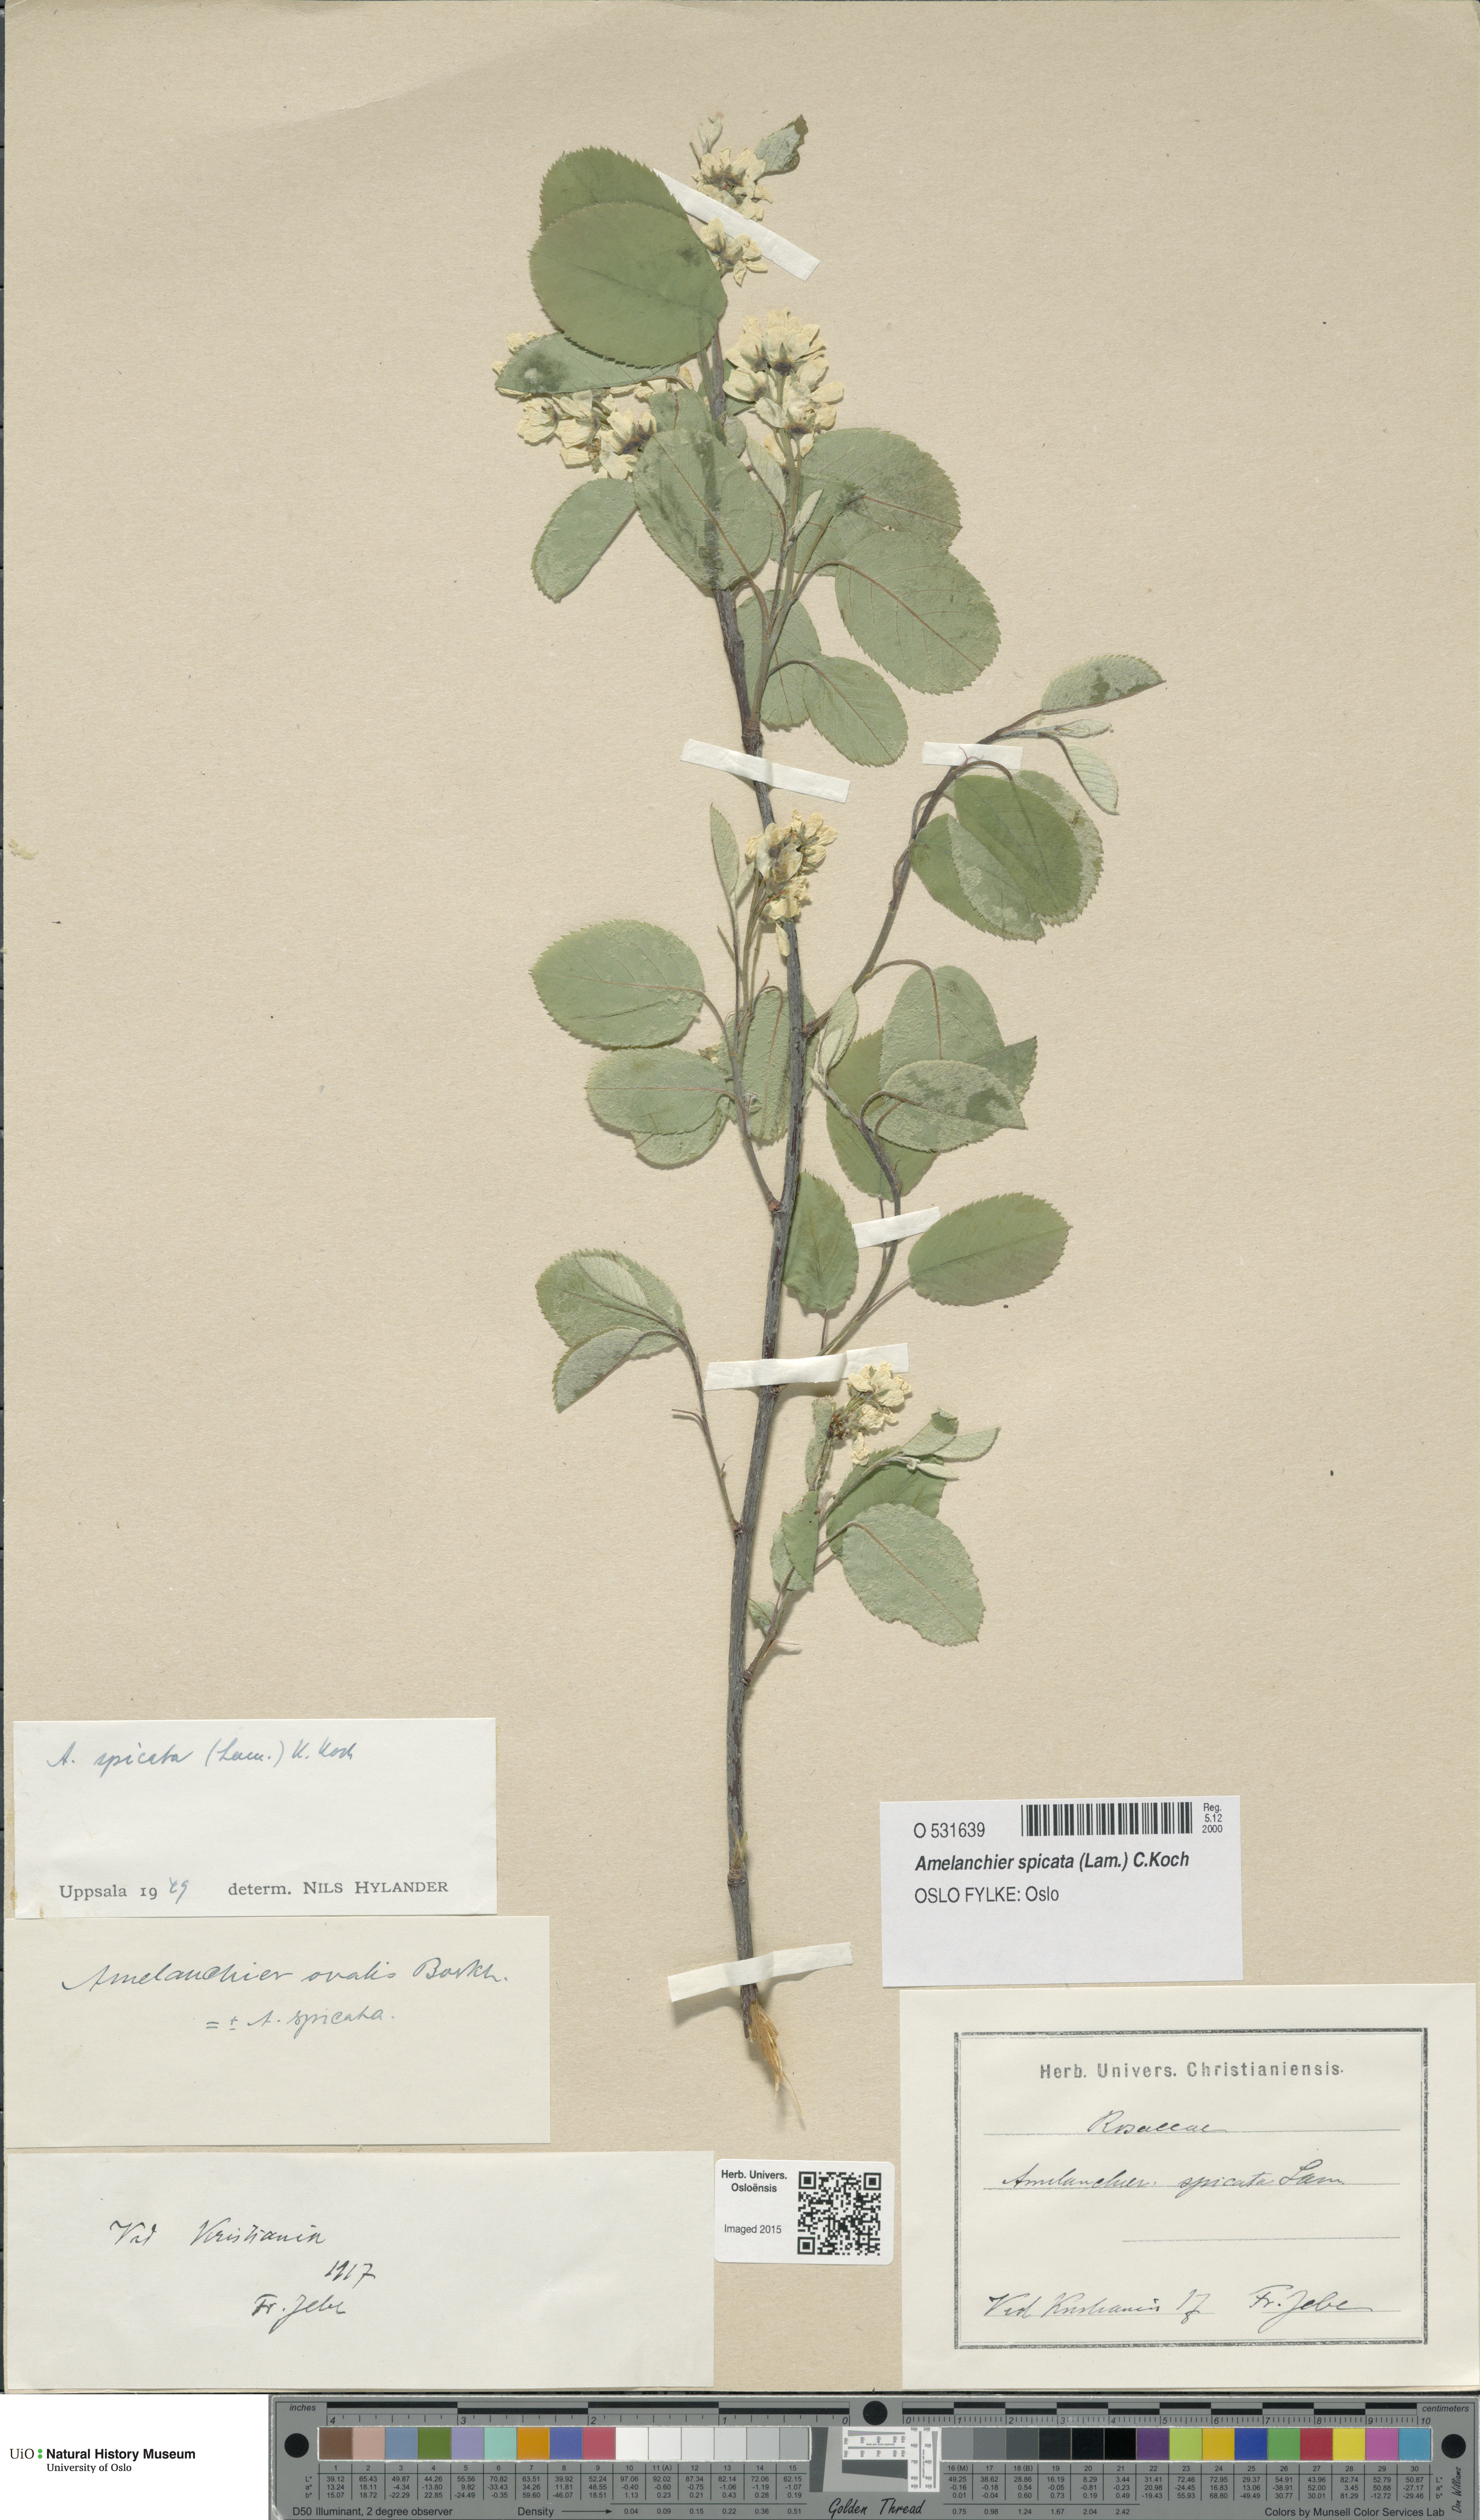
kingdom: Plantae
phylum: Tracheophyta
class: Magnoliopsida
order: Rosales
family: Rosaceae
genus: Amelanchier
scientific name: Amelanchier humilis
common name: Low juneberry
